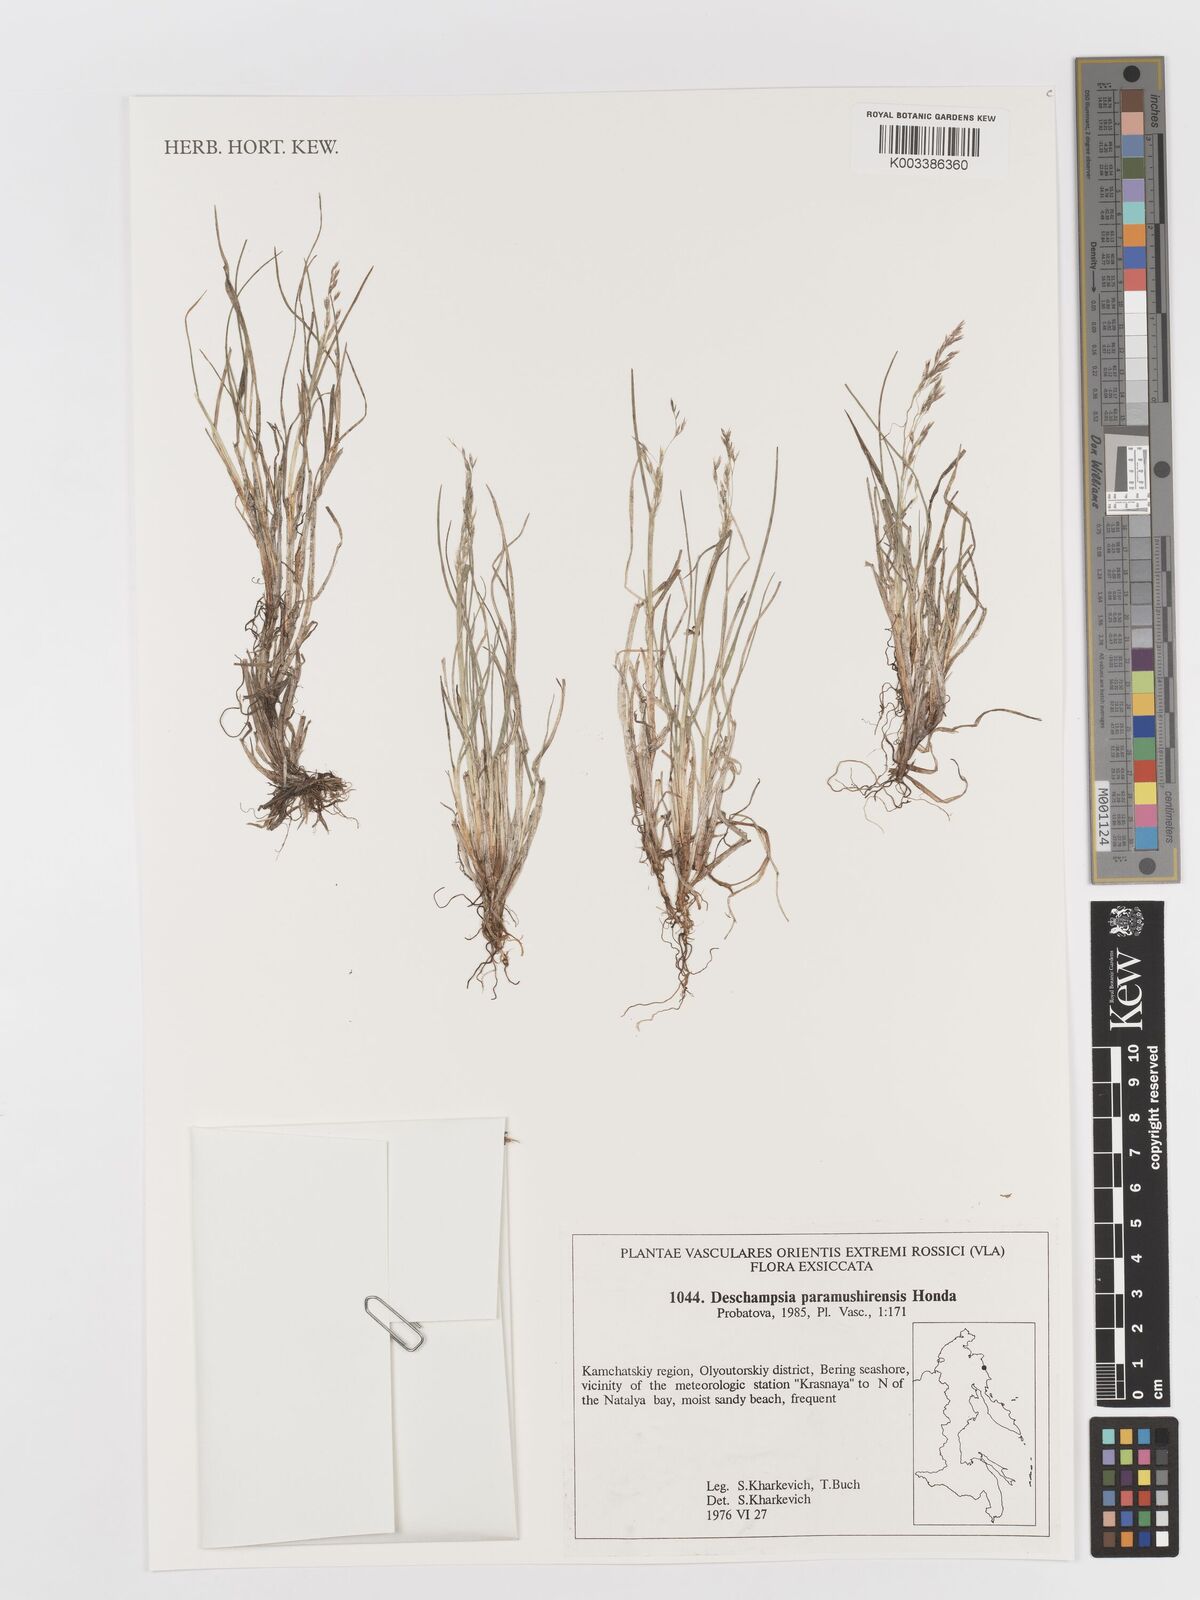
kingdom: Plantae
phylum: Tracheophyta
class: Liliopsida
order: Poales
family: Poaceae
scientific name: Poaceae
